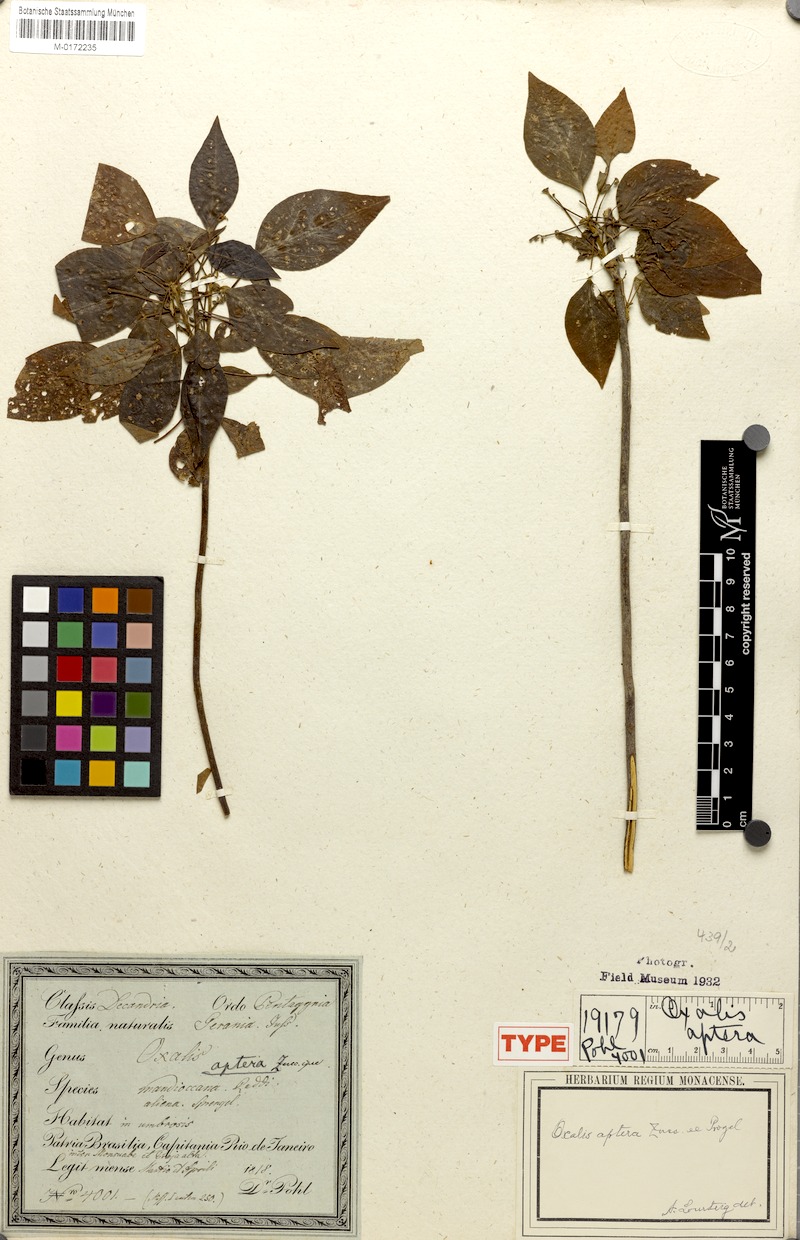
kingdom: Plantae
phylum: Tracheophyta
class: Magnoliopsida
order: Oxalidales
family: Oxalidaceae
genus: Oxalis
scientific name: Oxalis aptera
